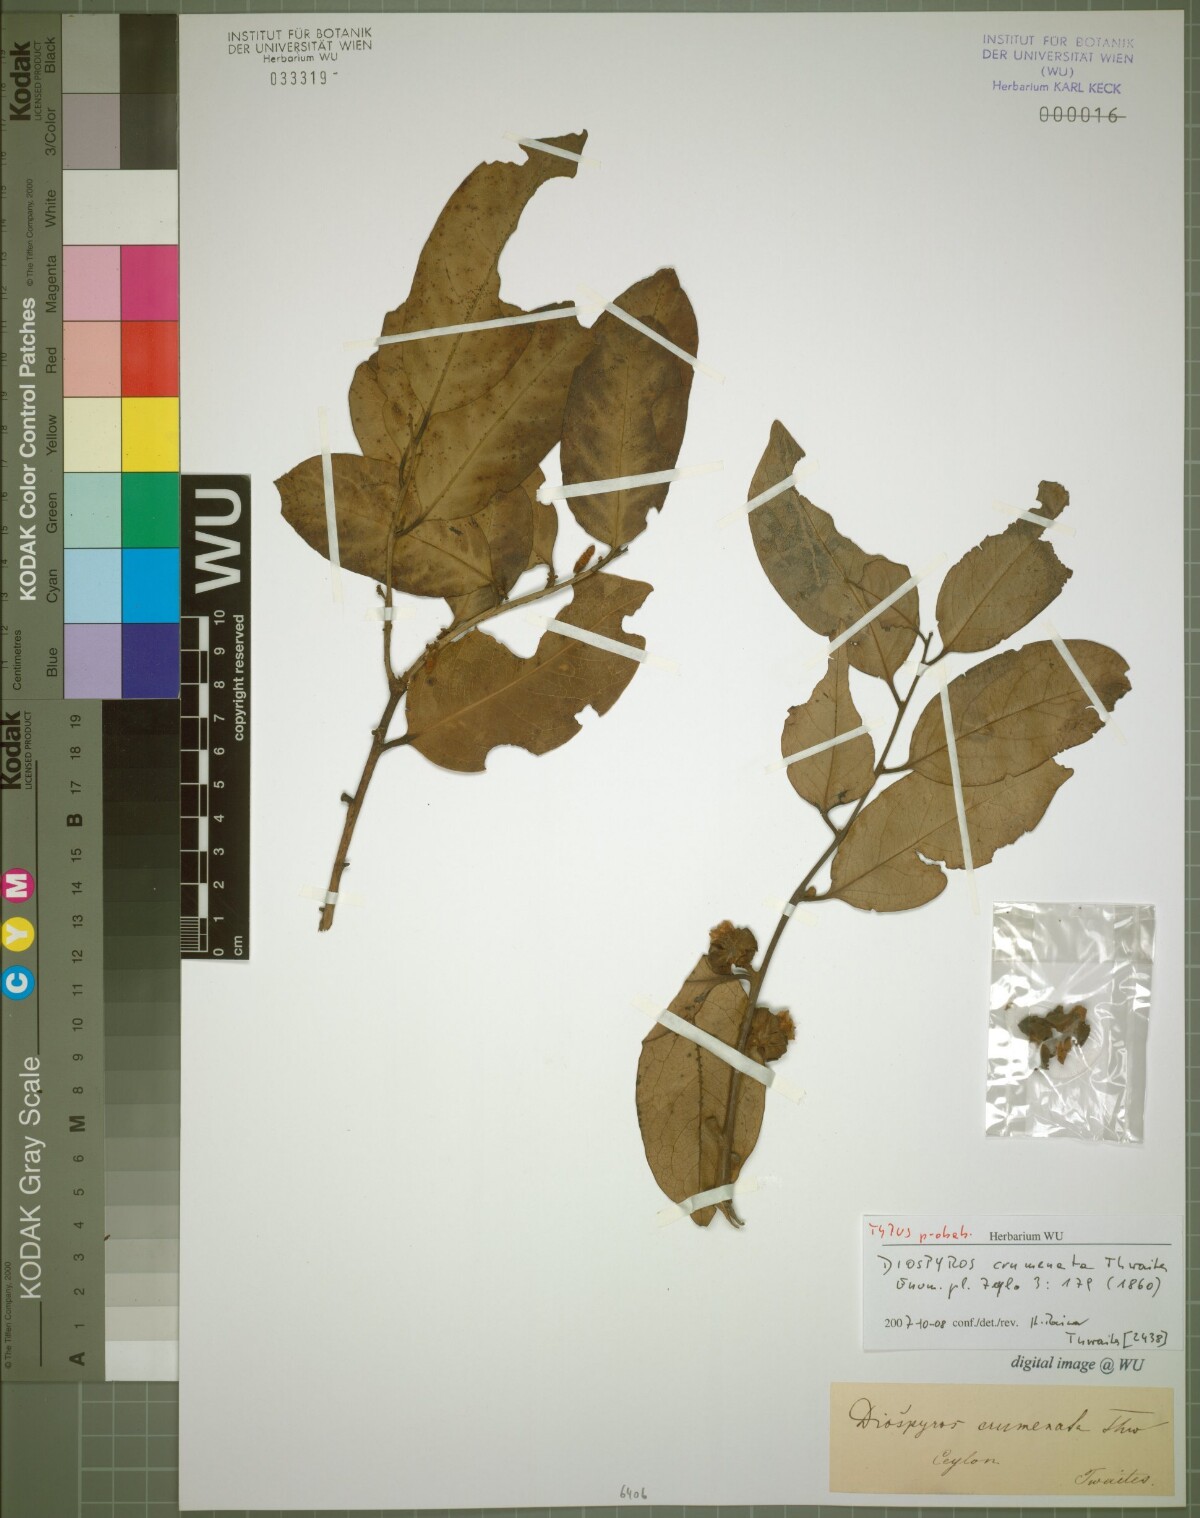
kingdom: Plantae
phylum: Tracheophyta
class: Magnoliopsida
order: Ericales
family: Ebenaceae
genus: Diospyros
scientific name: Diospyros crumenata
